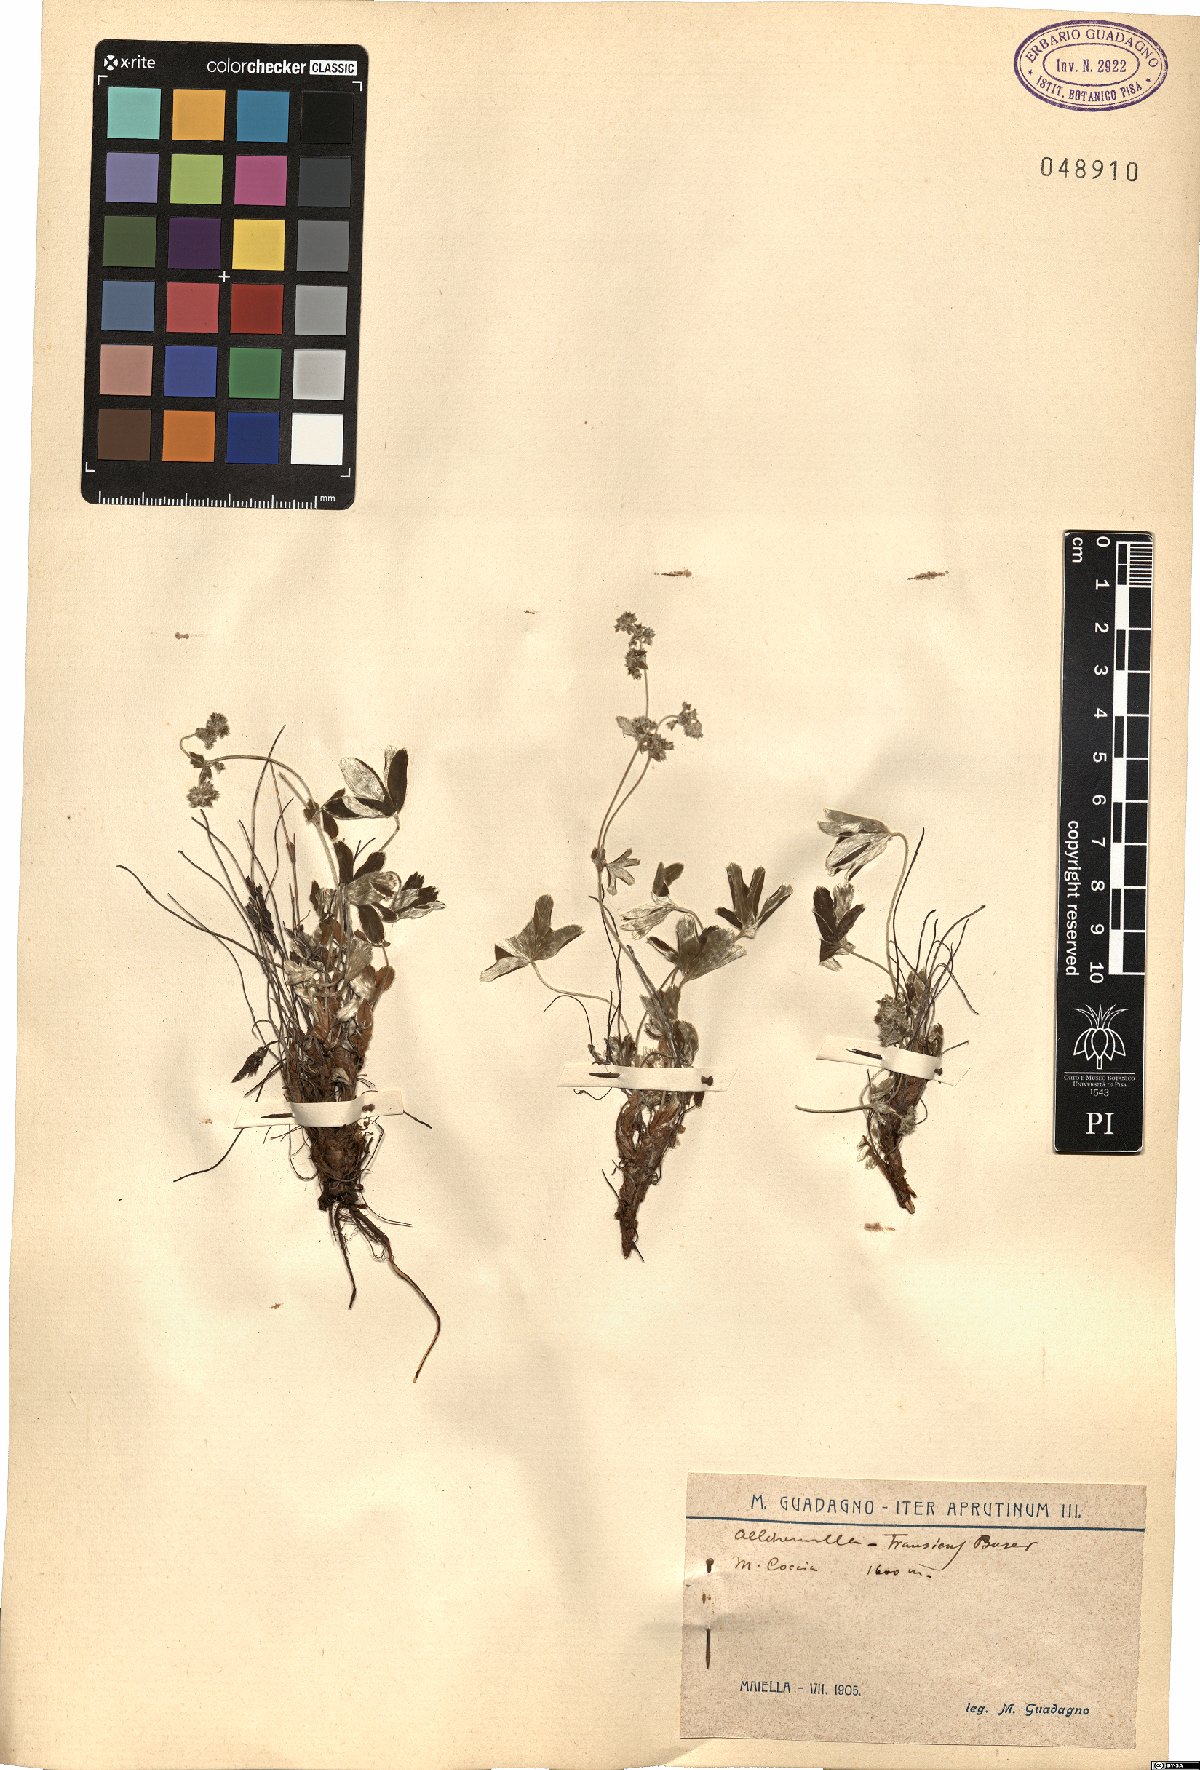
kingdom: Plantae
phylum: Tracheophyta
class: Magnoliopsida
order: Rosales
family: Rosaceae
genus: Alchemilla
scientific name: Alchemilla nitida
